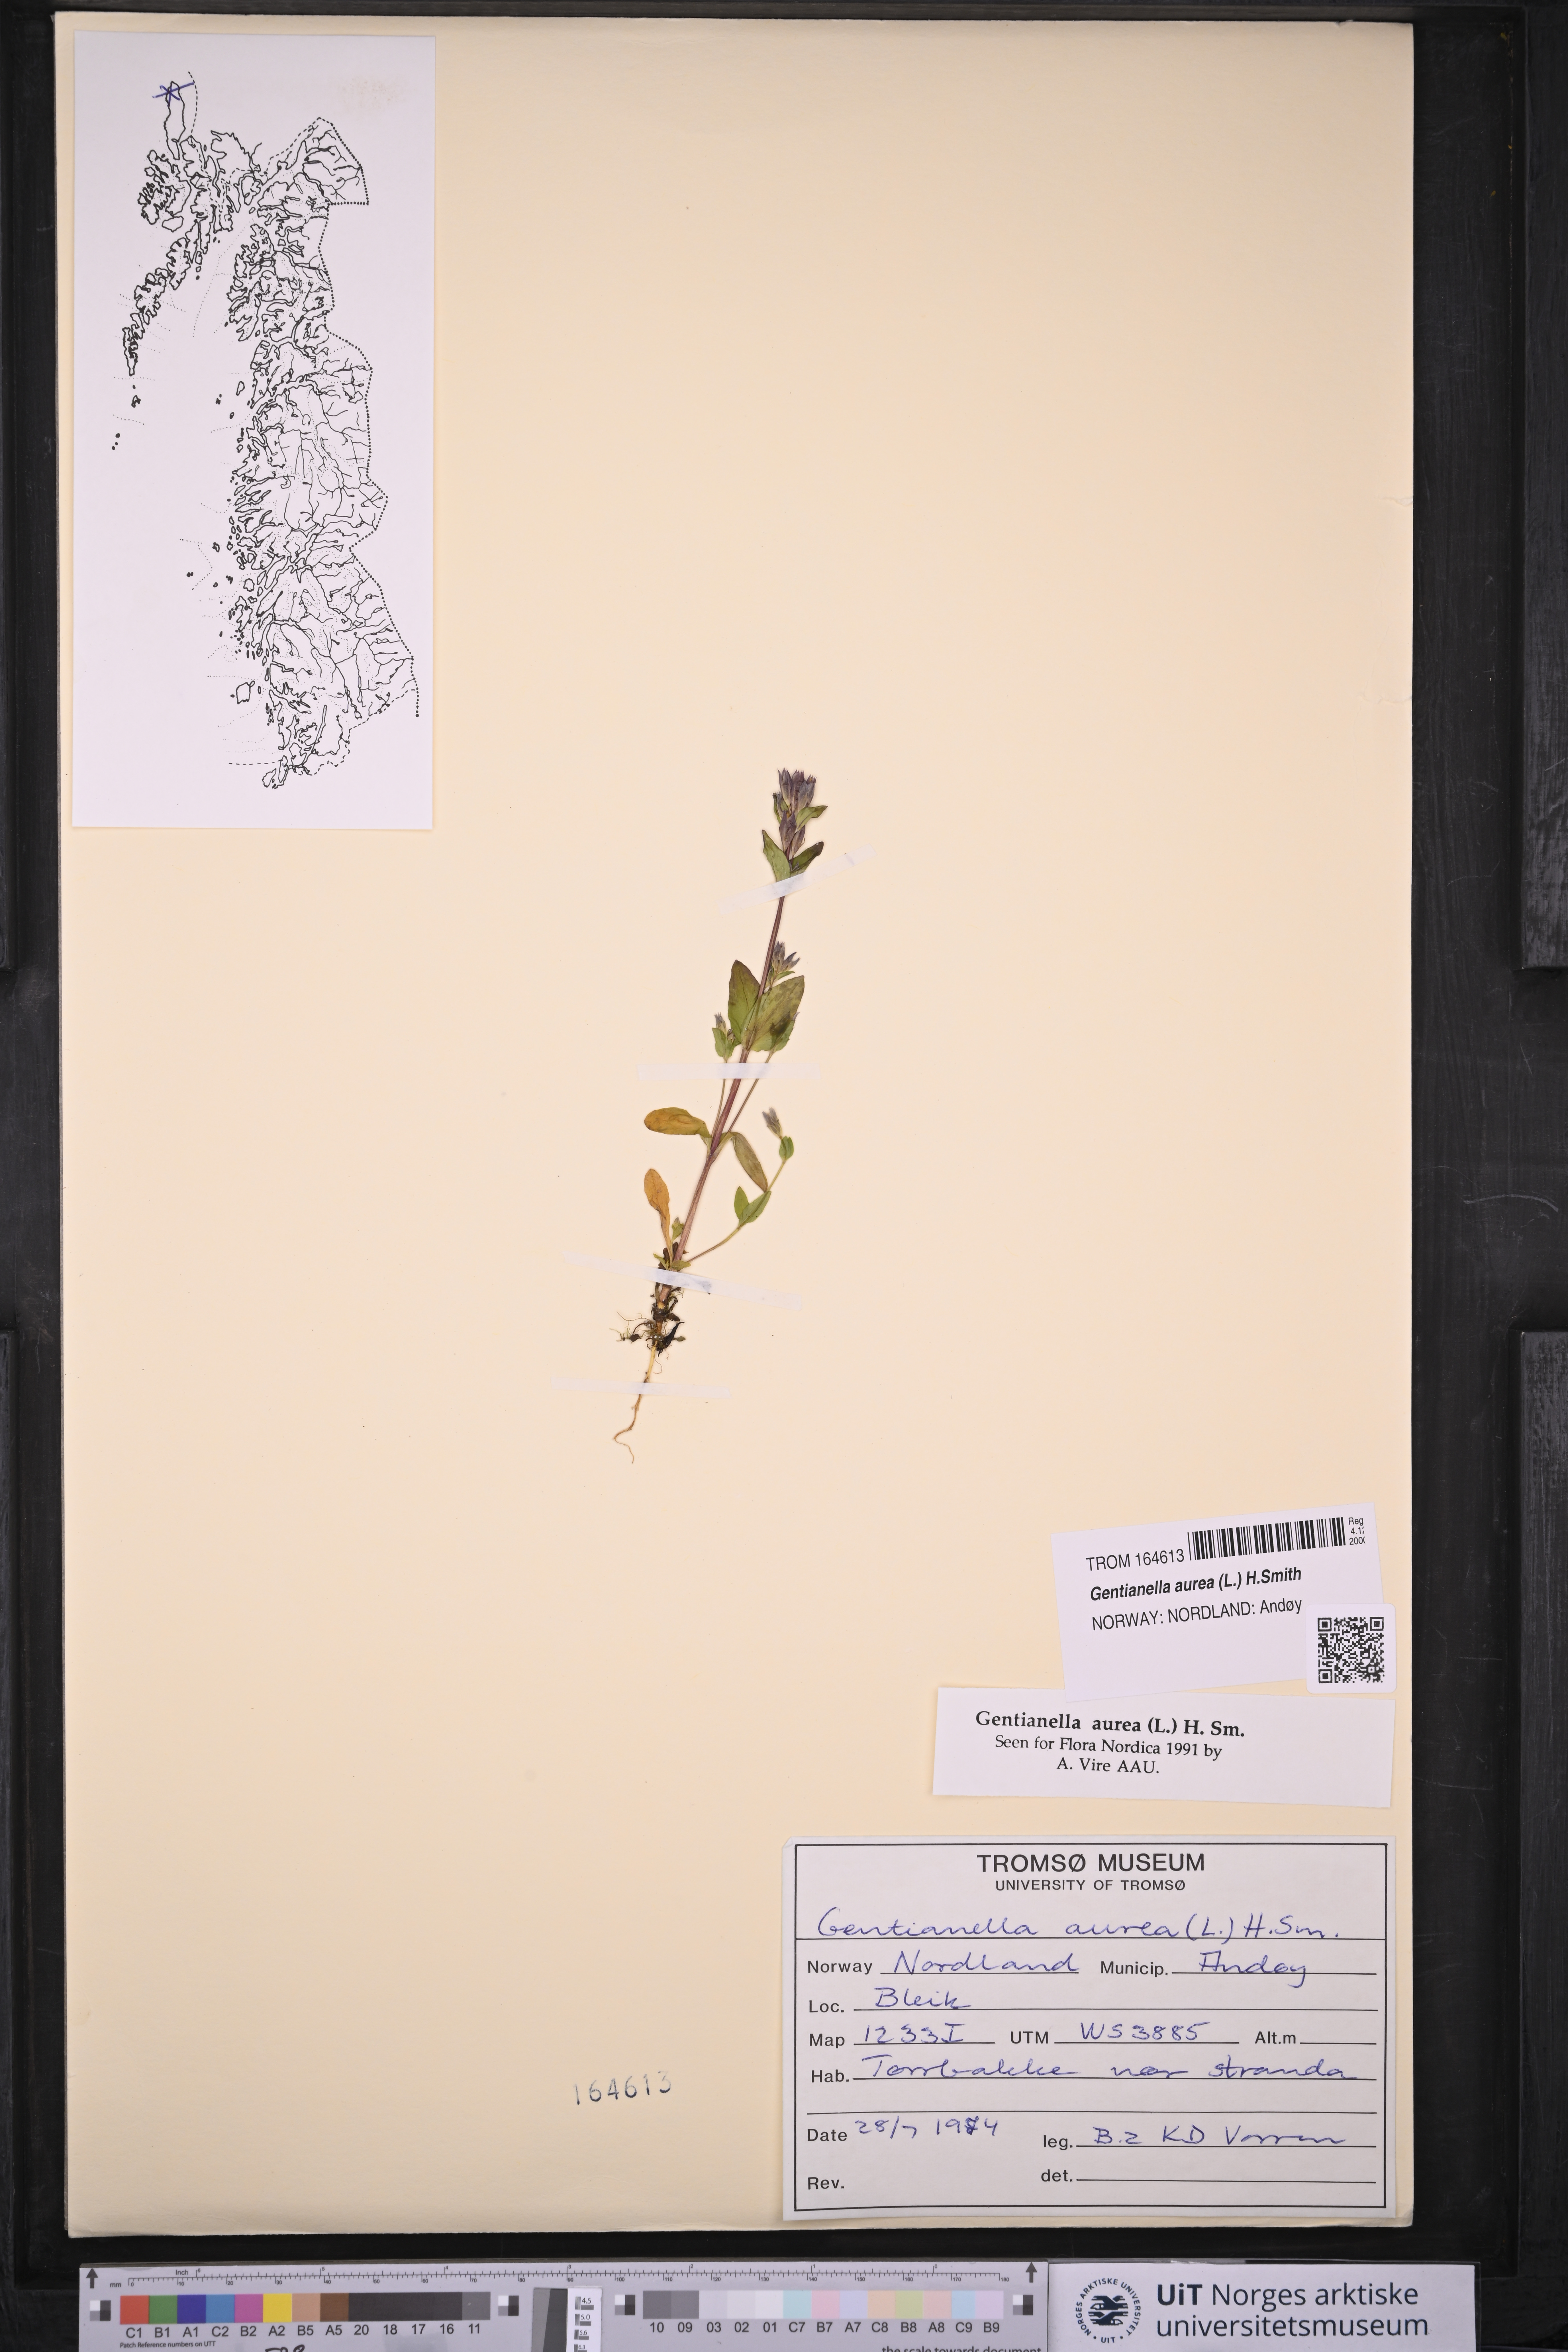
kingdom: Plantae
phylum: Tracheophyta
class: Magnoliopsida
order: Gentianales
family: Gentianaceae
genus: Gentianella
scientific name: Gentianella aurea
